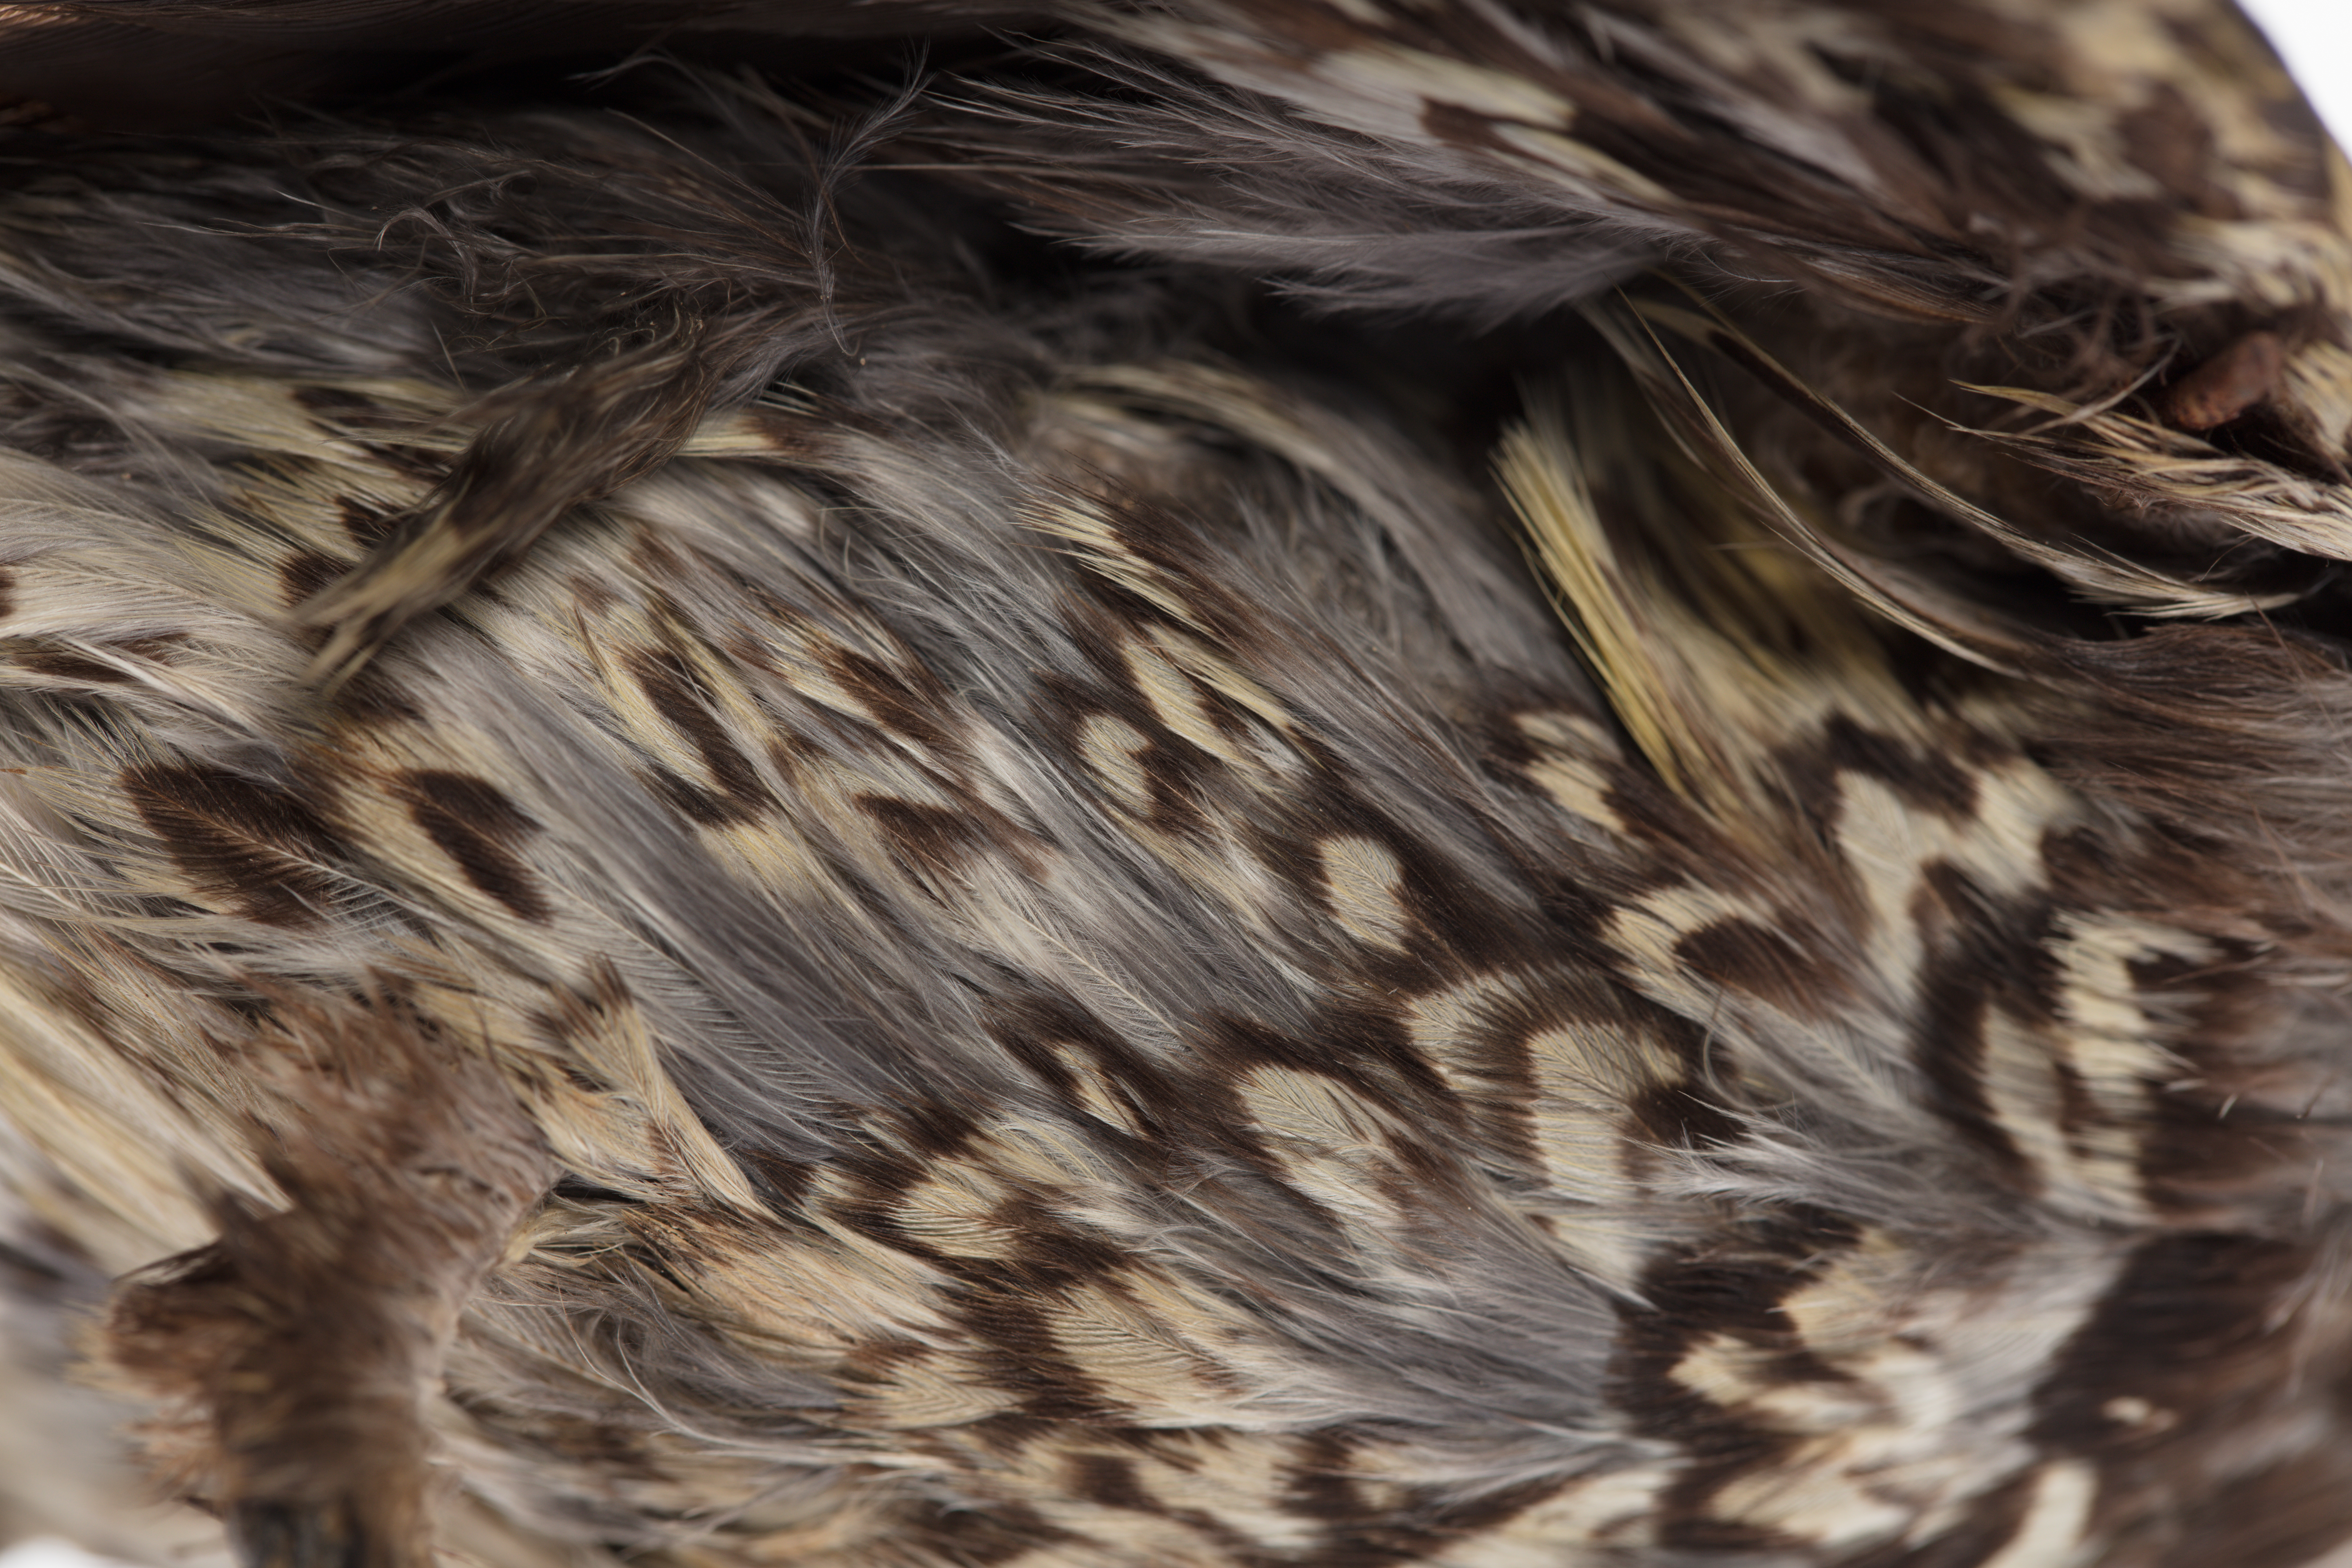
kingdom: Animalia
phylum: Chordata
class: Aves
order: Passeriformes
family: Meliphagidae
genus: Anthochaera
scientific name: Anthochaera phrygia
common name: Regent honeyeater
